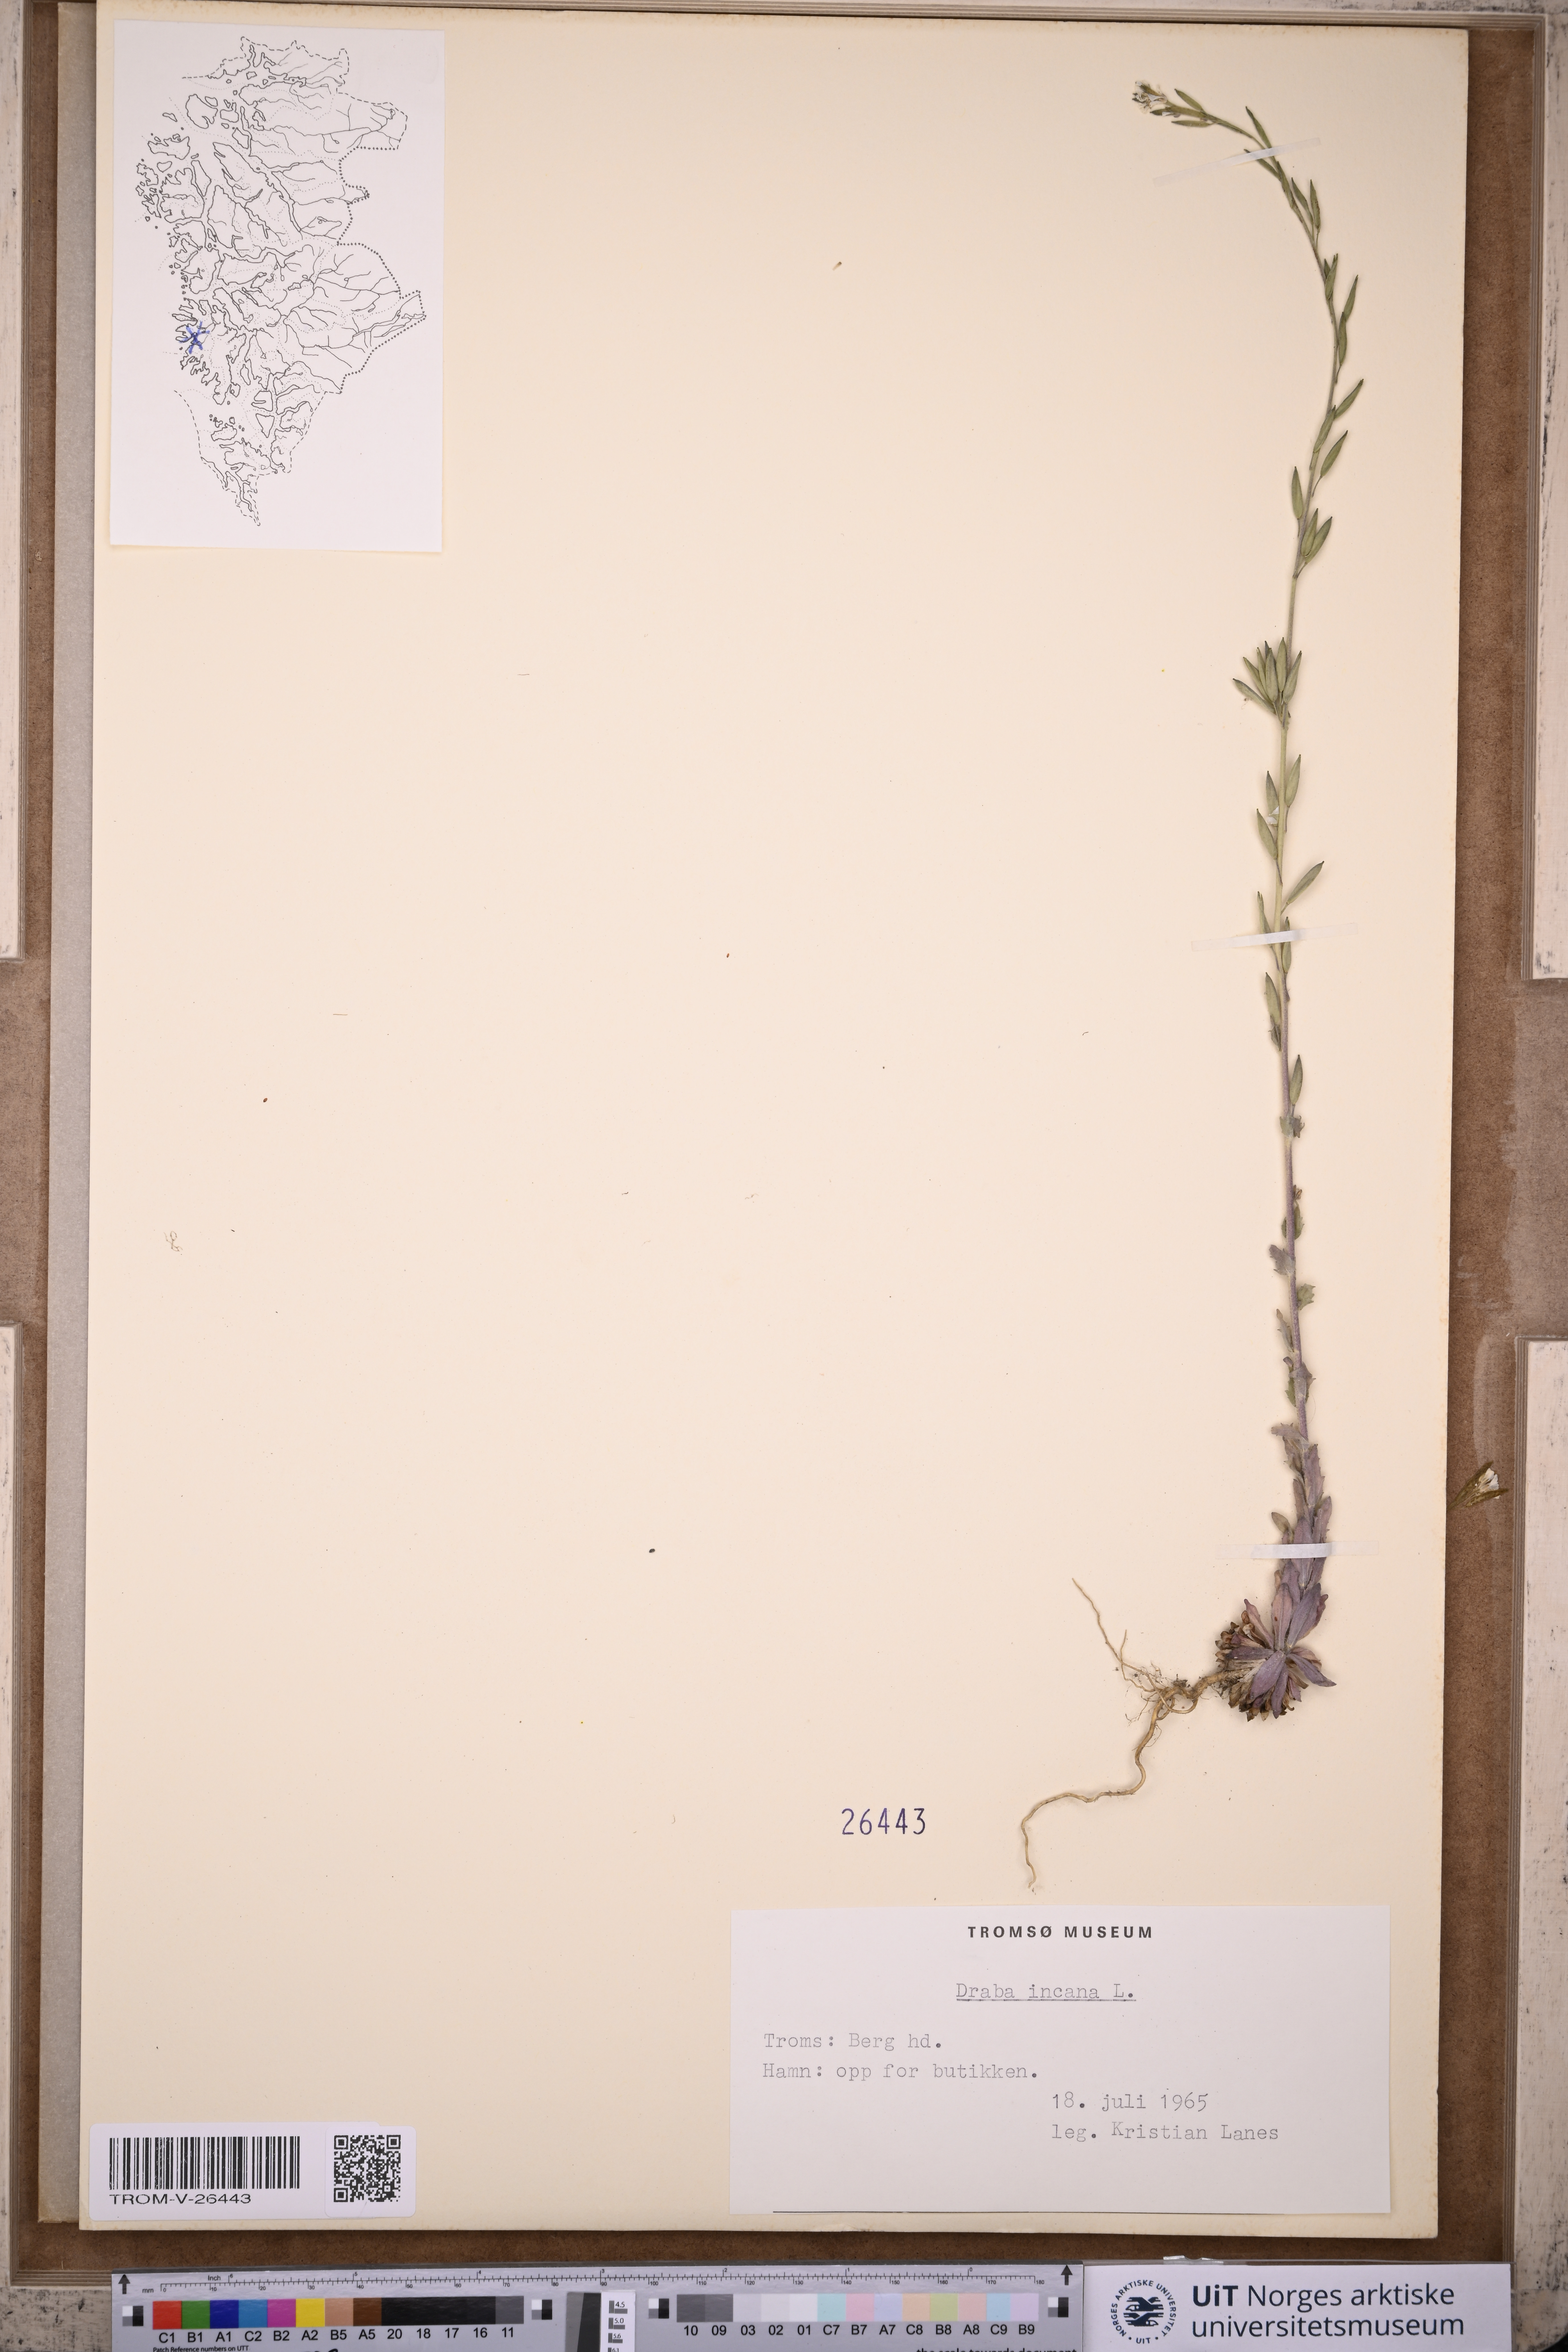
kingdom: Plantae
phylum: Tracheophyta
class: Magnoliopsida
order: Brassicales
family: Brassicaceae
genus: Draba
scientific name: Draba incana
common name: Hoary whitlow-grass
